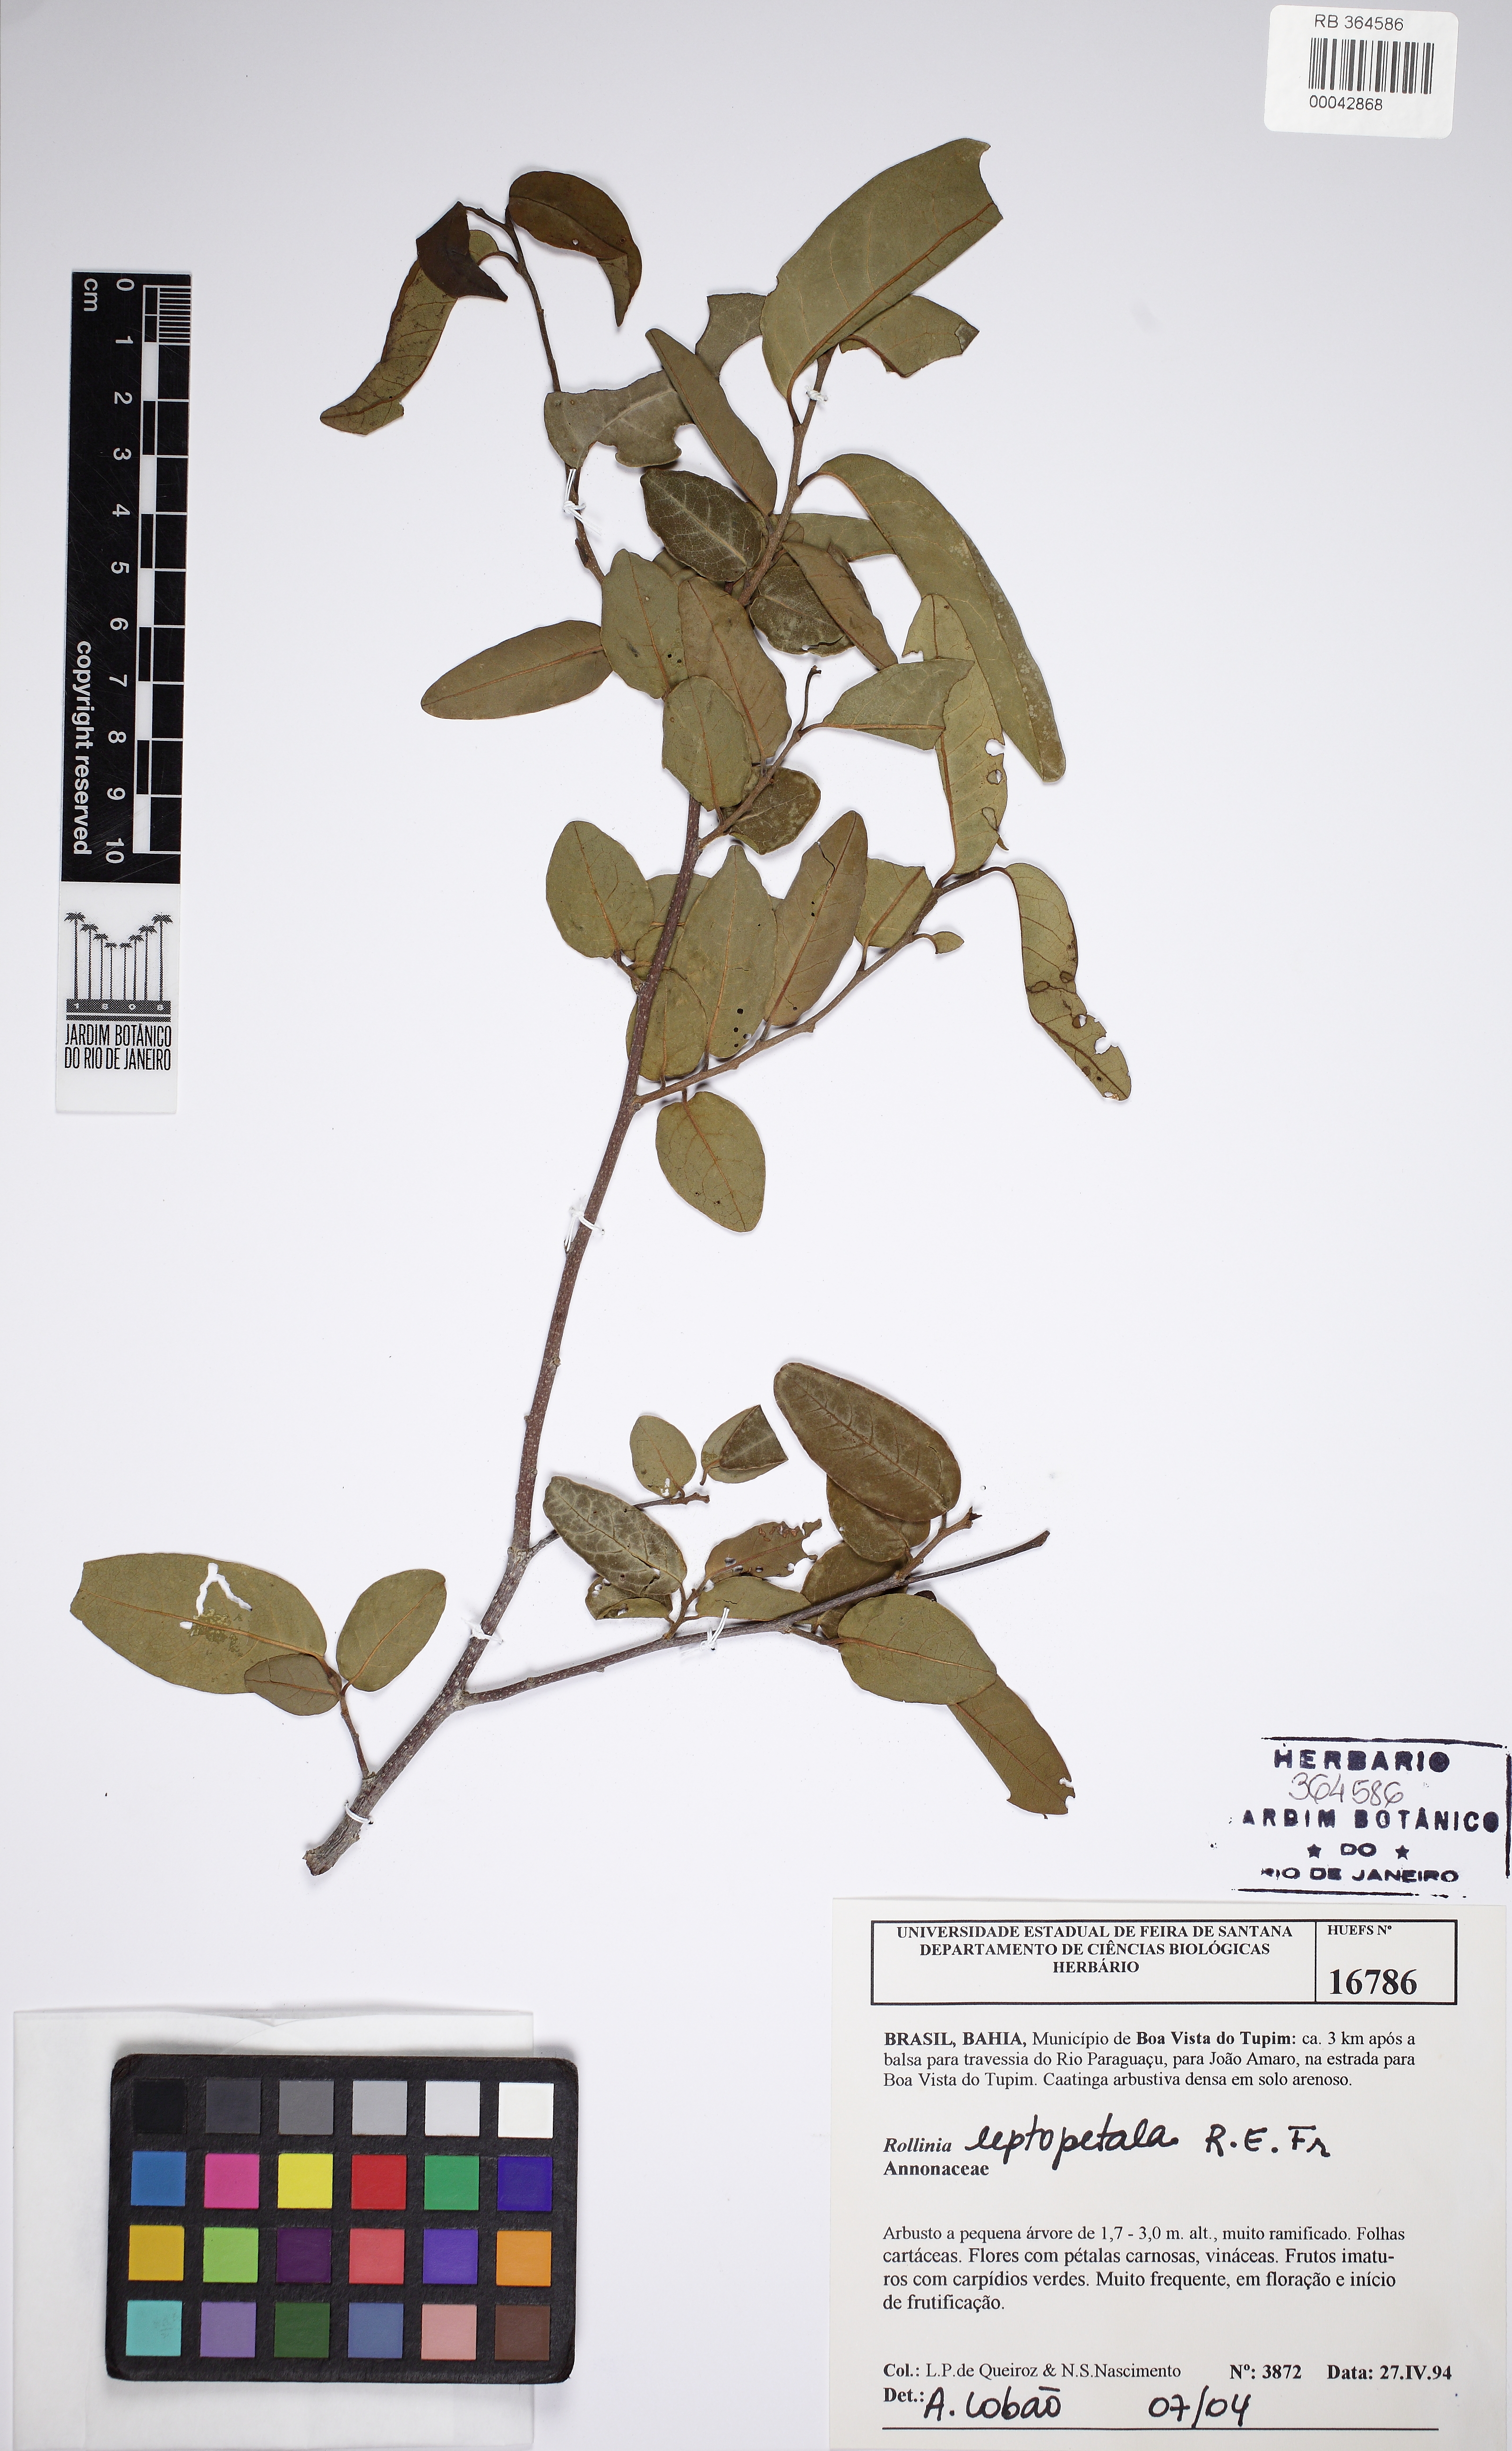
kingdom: Plantae
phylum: Tracheophyta
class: Magnoliopsida
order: Magnoliales
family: Annonaceae
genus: Annona
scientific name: Annona leptopetala
